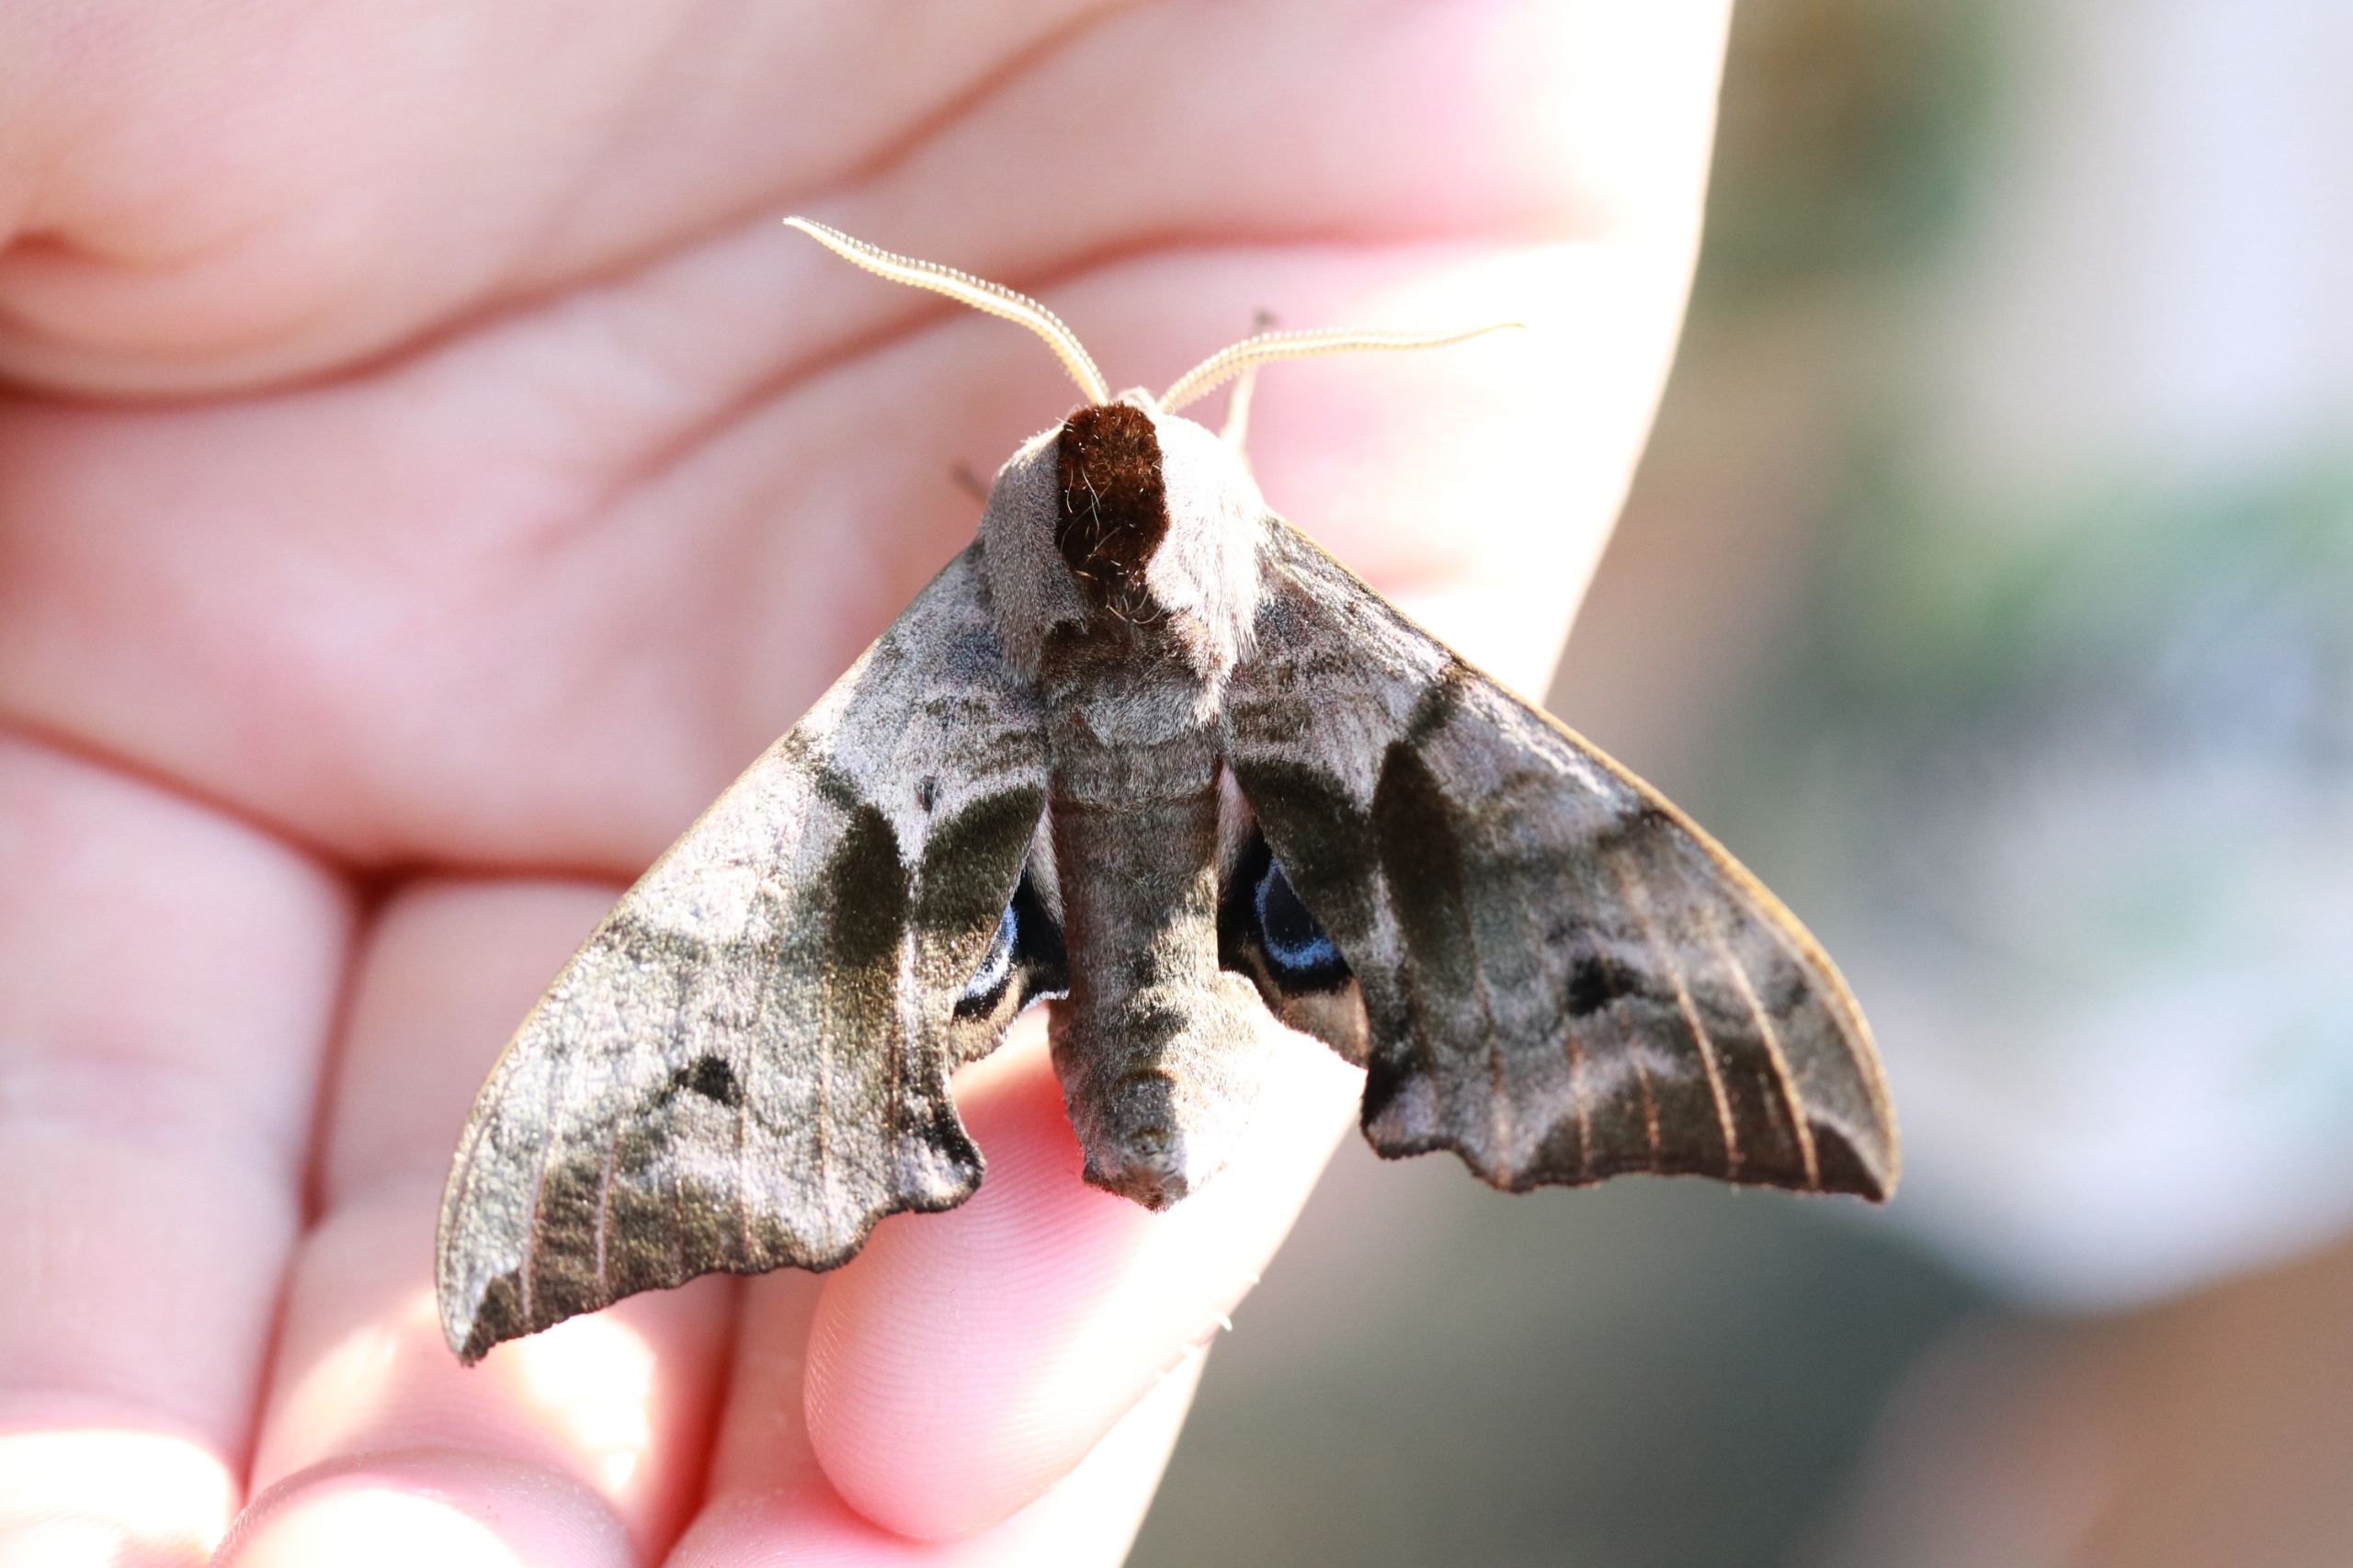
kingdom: Animalia
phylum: Arthropoda
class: Insecta
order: Lepidoptera
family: Sphingidae
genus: Smerinthus
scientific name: Smerinthus ocellata
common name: Aftenpåfugleøje
